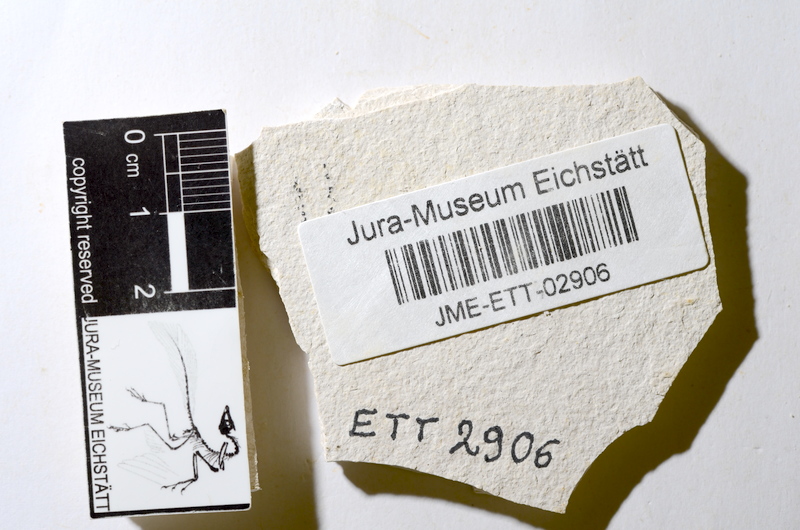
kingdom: Animalia
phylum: Chordata
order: Salmoniformes
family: Orthogonikleithridae
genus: Orthogonikleithrus
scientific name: Orthogonikleithrus hoelli
